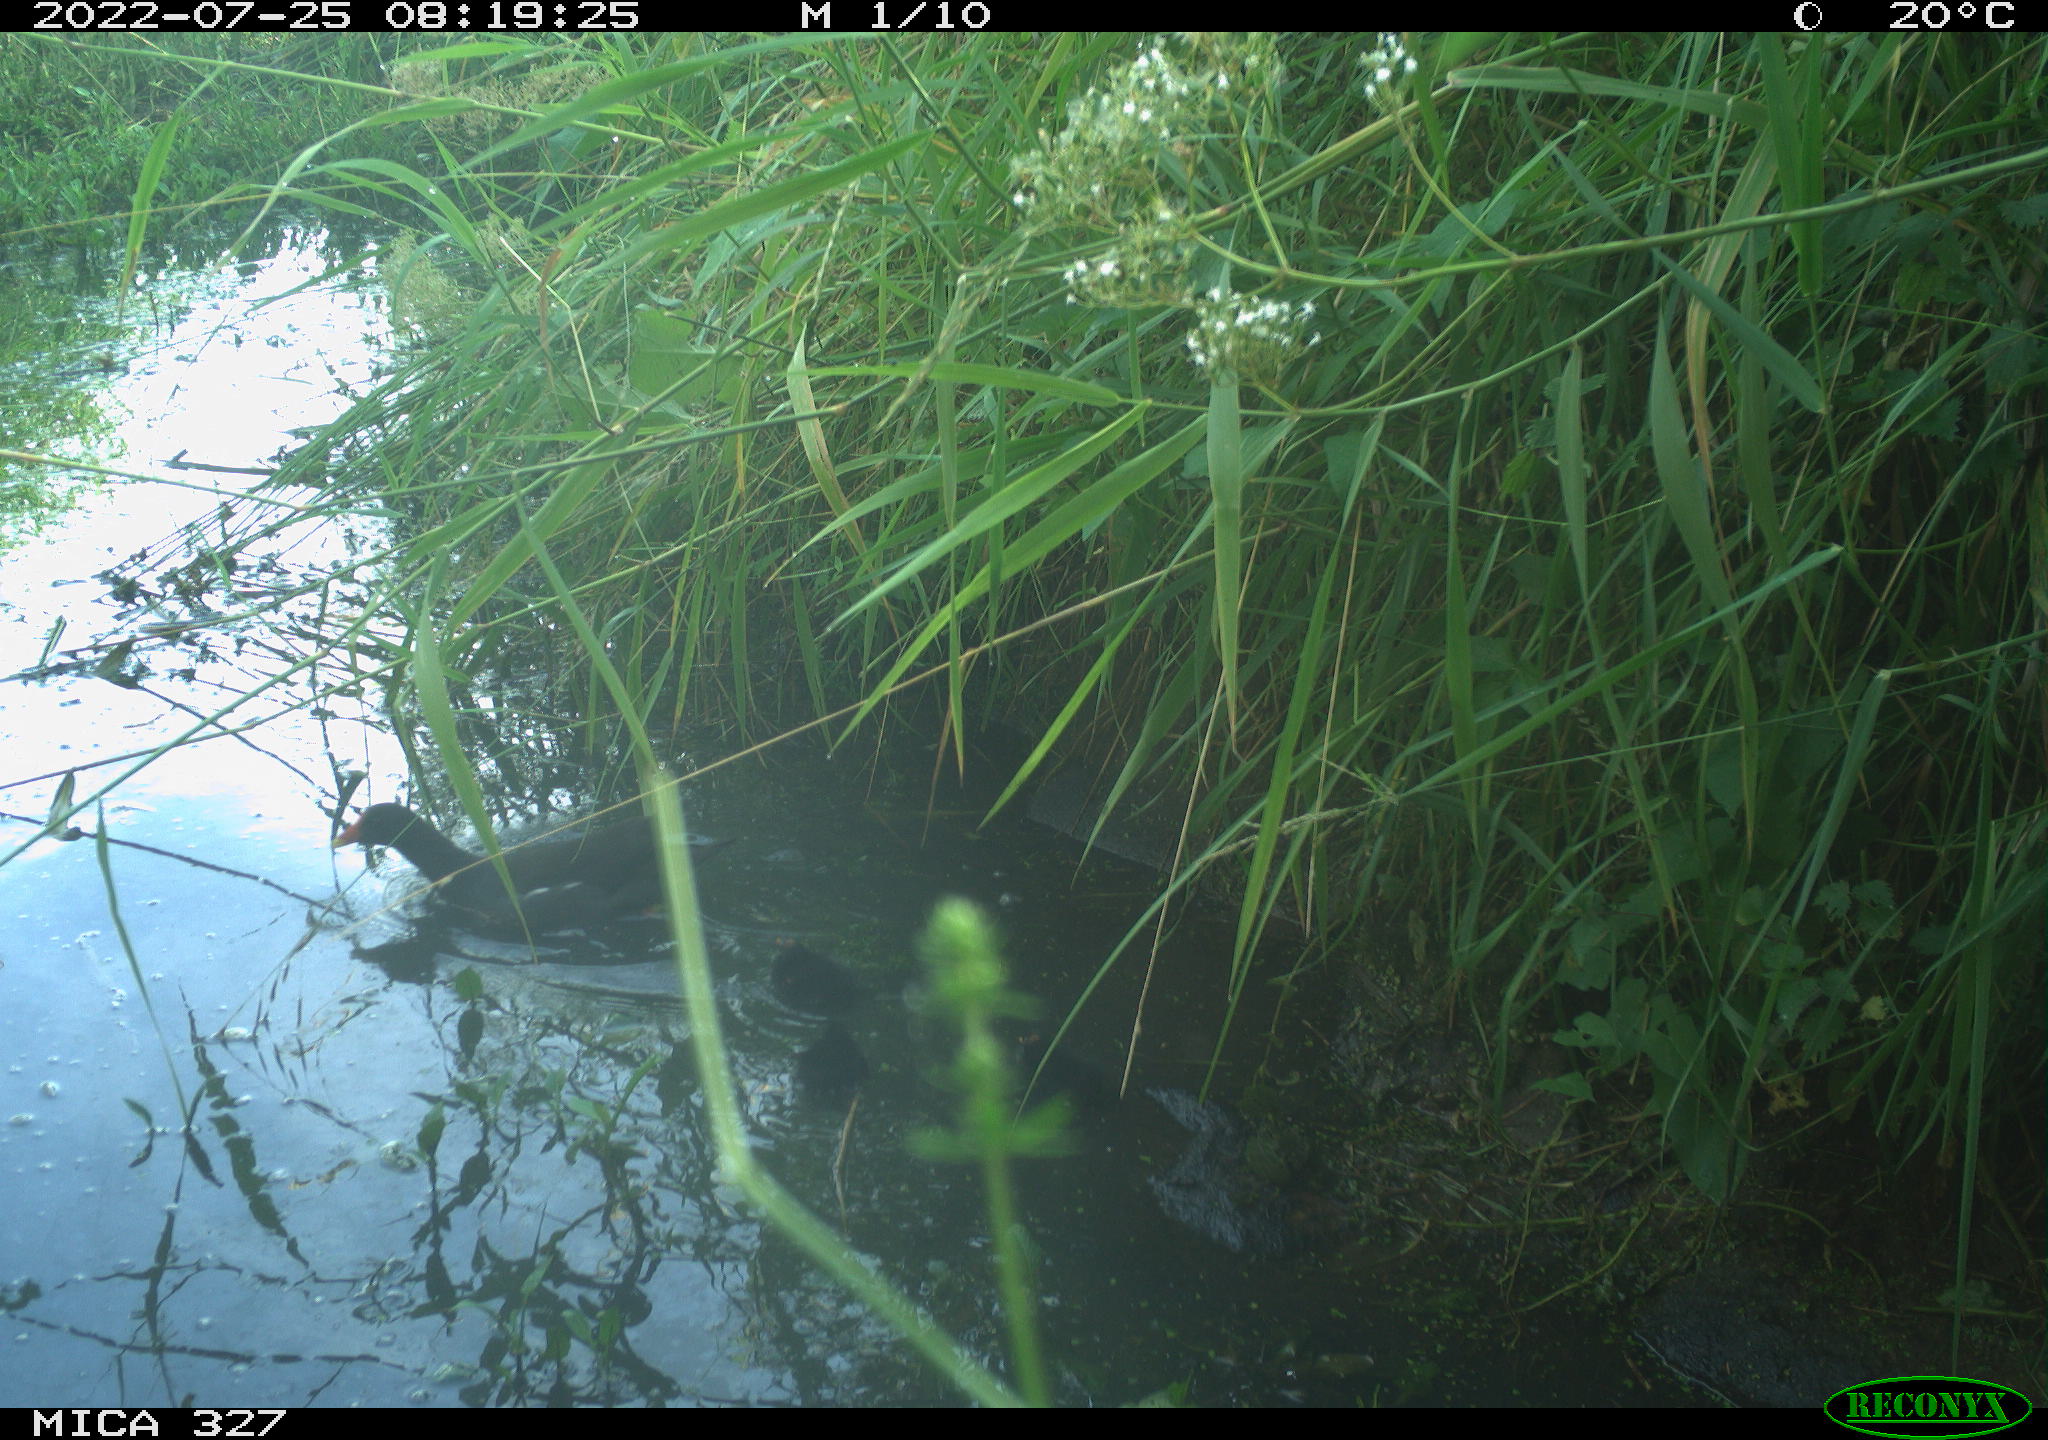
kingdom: Animalia
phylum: Chordata
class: Aves
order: Gruiformes
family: Rallidae
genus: Gallinula
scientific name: Gallinula chloropus
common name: Common moorhen
